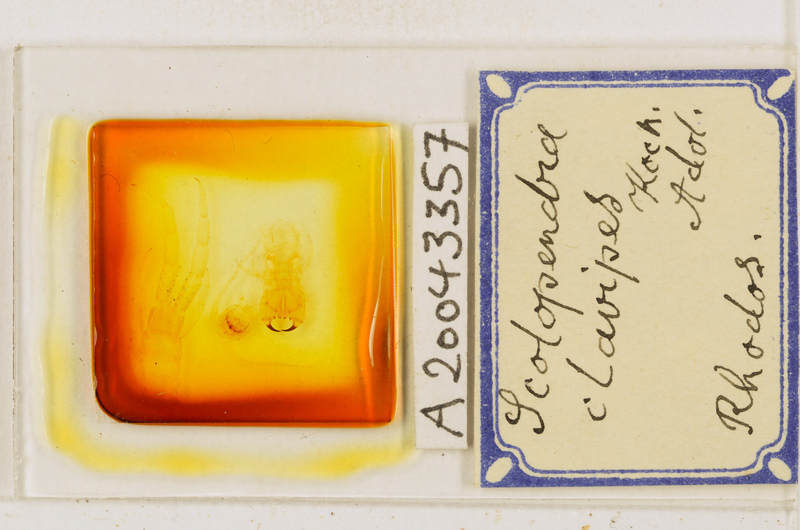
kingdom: Animalia
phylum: Arthropoda
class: Chilopoda
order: Scolopendromorpha
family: Scolopendridae
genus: Scolopendra
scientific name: Scolopendra clavipes
